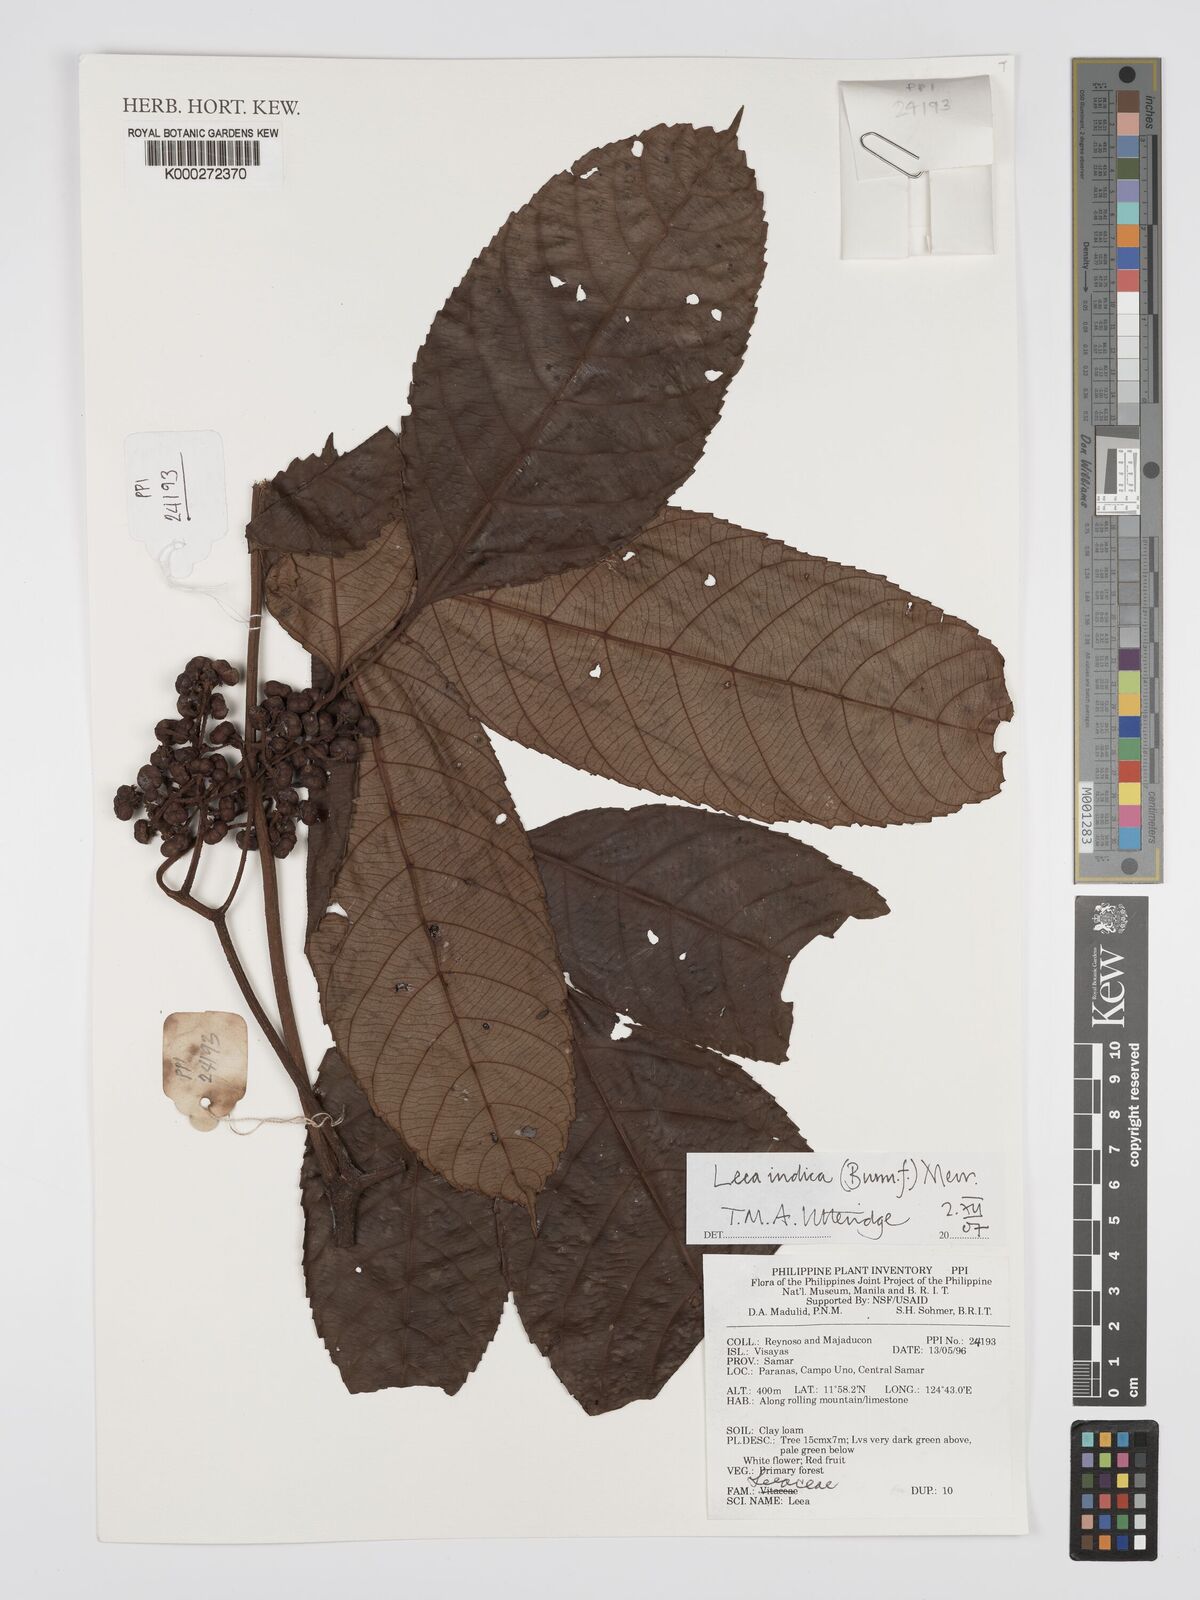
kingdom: Plantae
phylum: Tracheophyta
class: Magnoliopsida
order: Vitales
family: Vitaceae
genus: Leea
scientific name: Leea indica
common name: Bandicoot-berry
